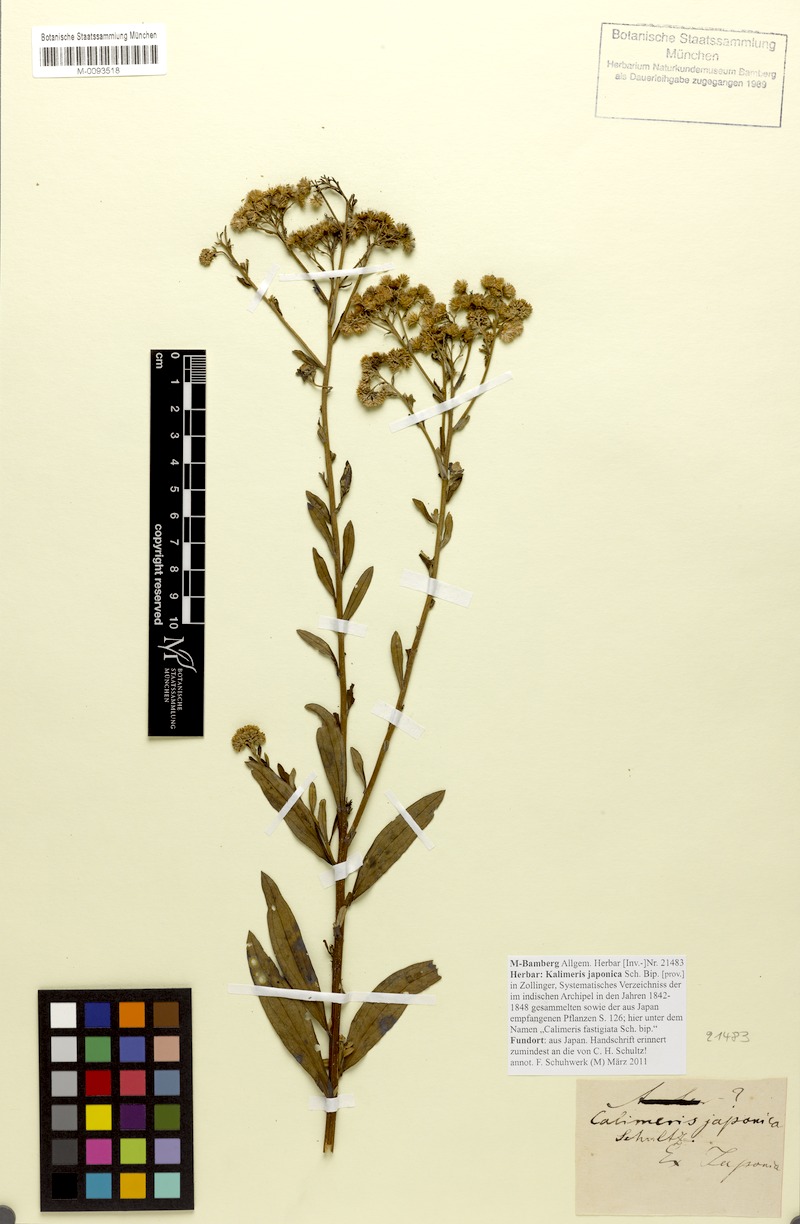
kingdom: Plantae
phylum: Tracheophyta
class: Magnoliopsida
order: Asterales
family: Asteraceae
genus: Turczaninovia
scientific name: Turczaninovia fastigiata
